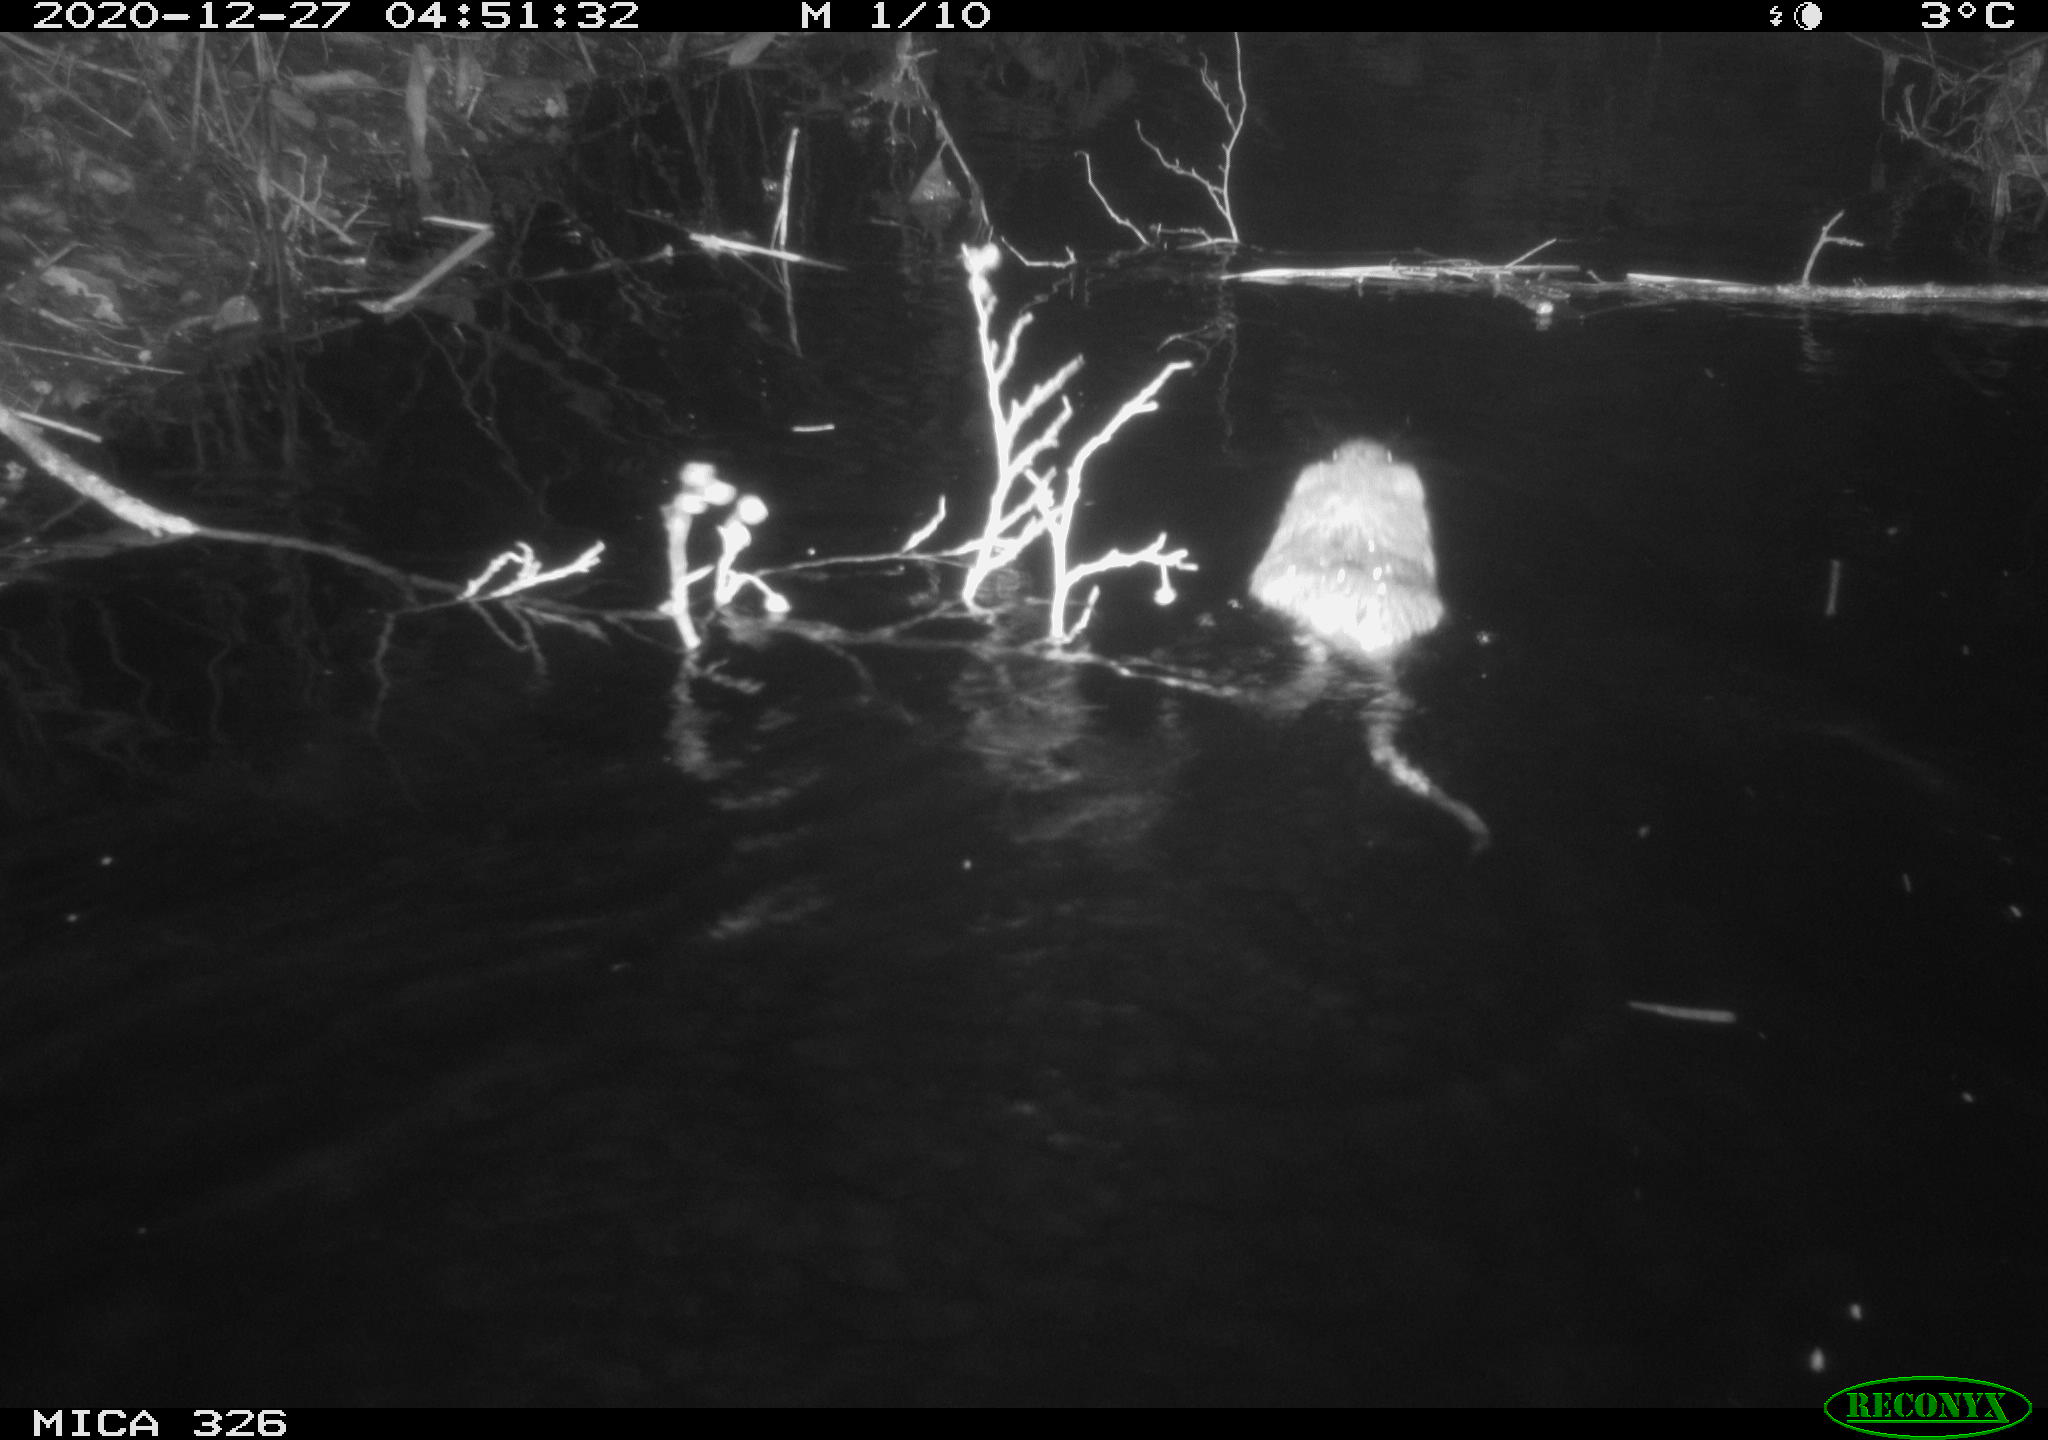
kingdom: Animalia
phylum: Chordata
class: Mammalia
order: Rodentia
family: Cricetidae
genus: Ondatra
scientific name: Ondatra zibethicus
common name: Muskrat
